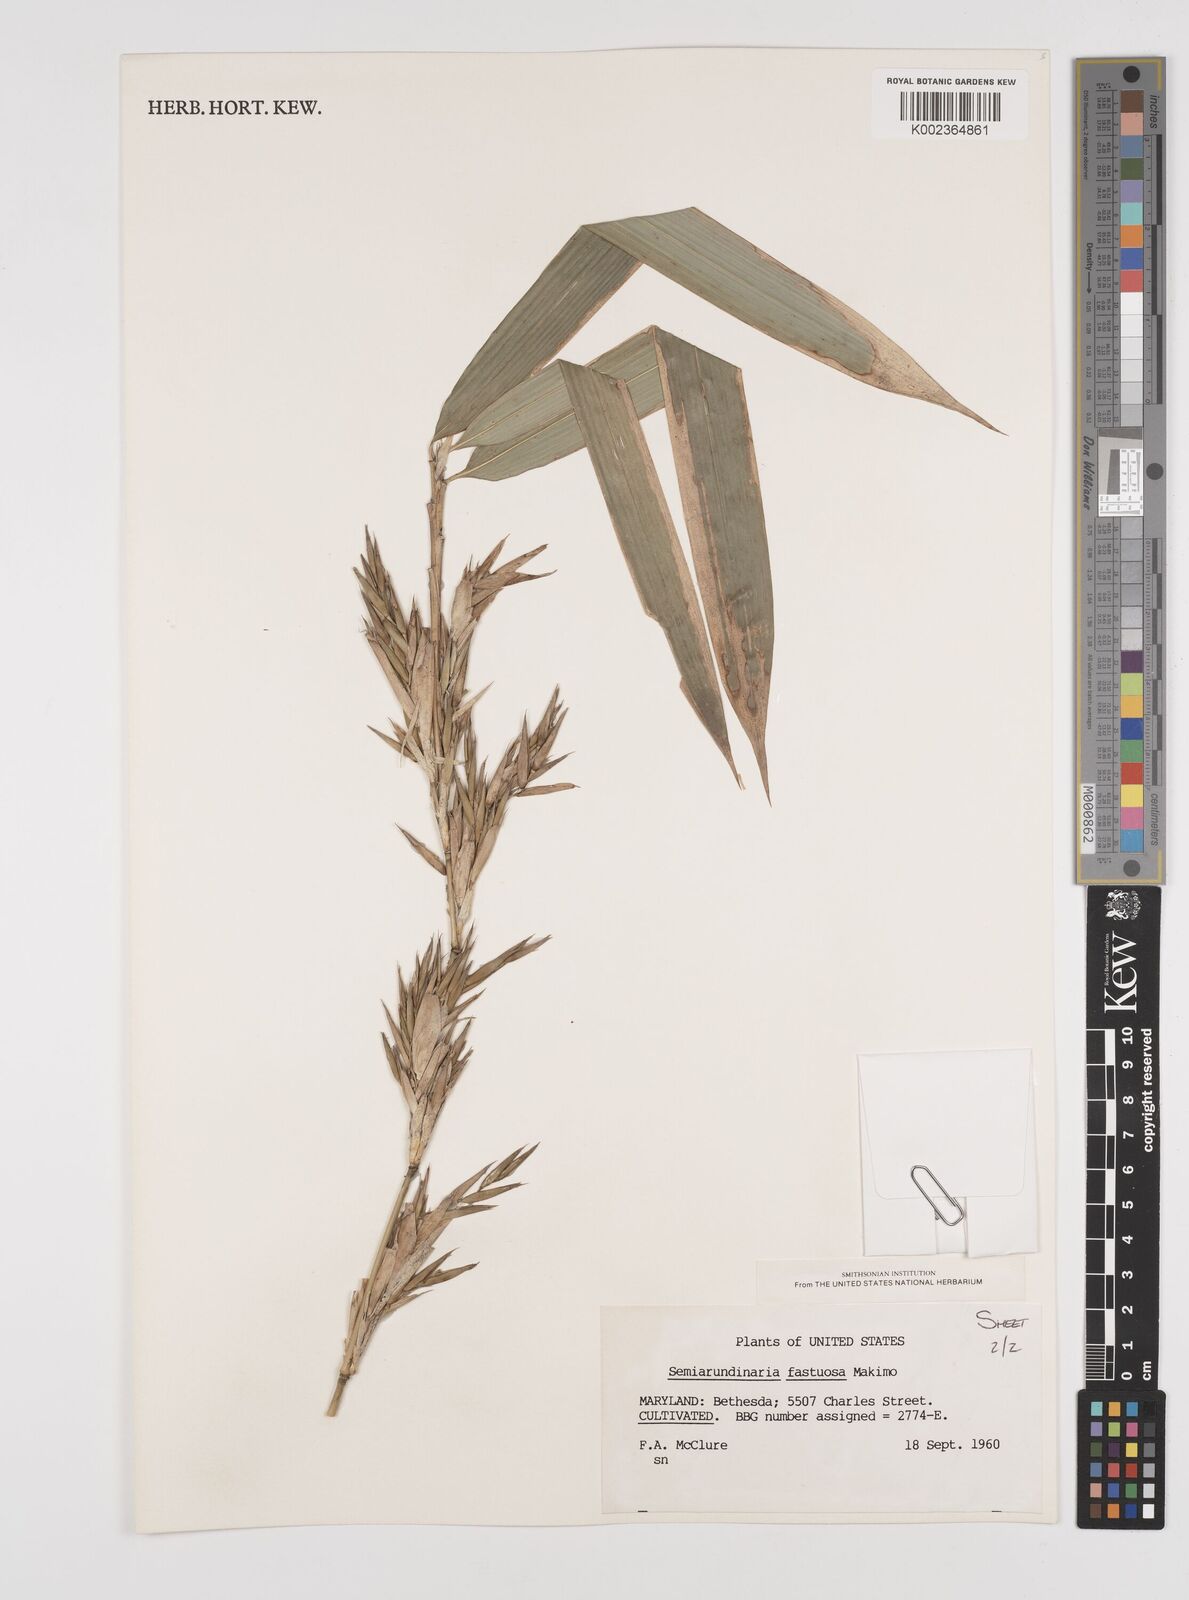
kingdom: Plantae
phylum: Tracheophyta
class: Liliopsida
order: Poales
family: Poaceae
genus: Semiarundinaria
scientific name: Semiarundinaria fastuosa
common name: Narihira bamboo
